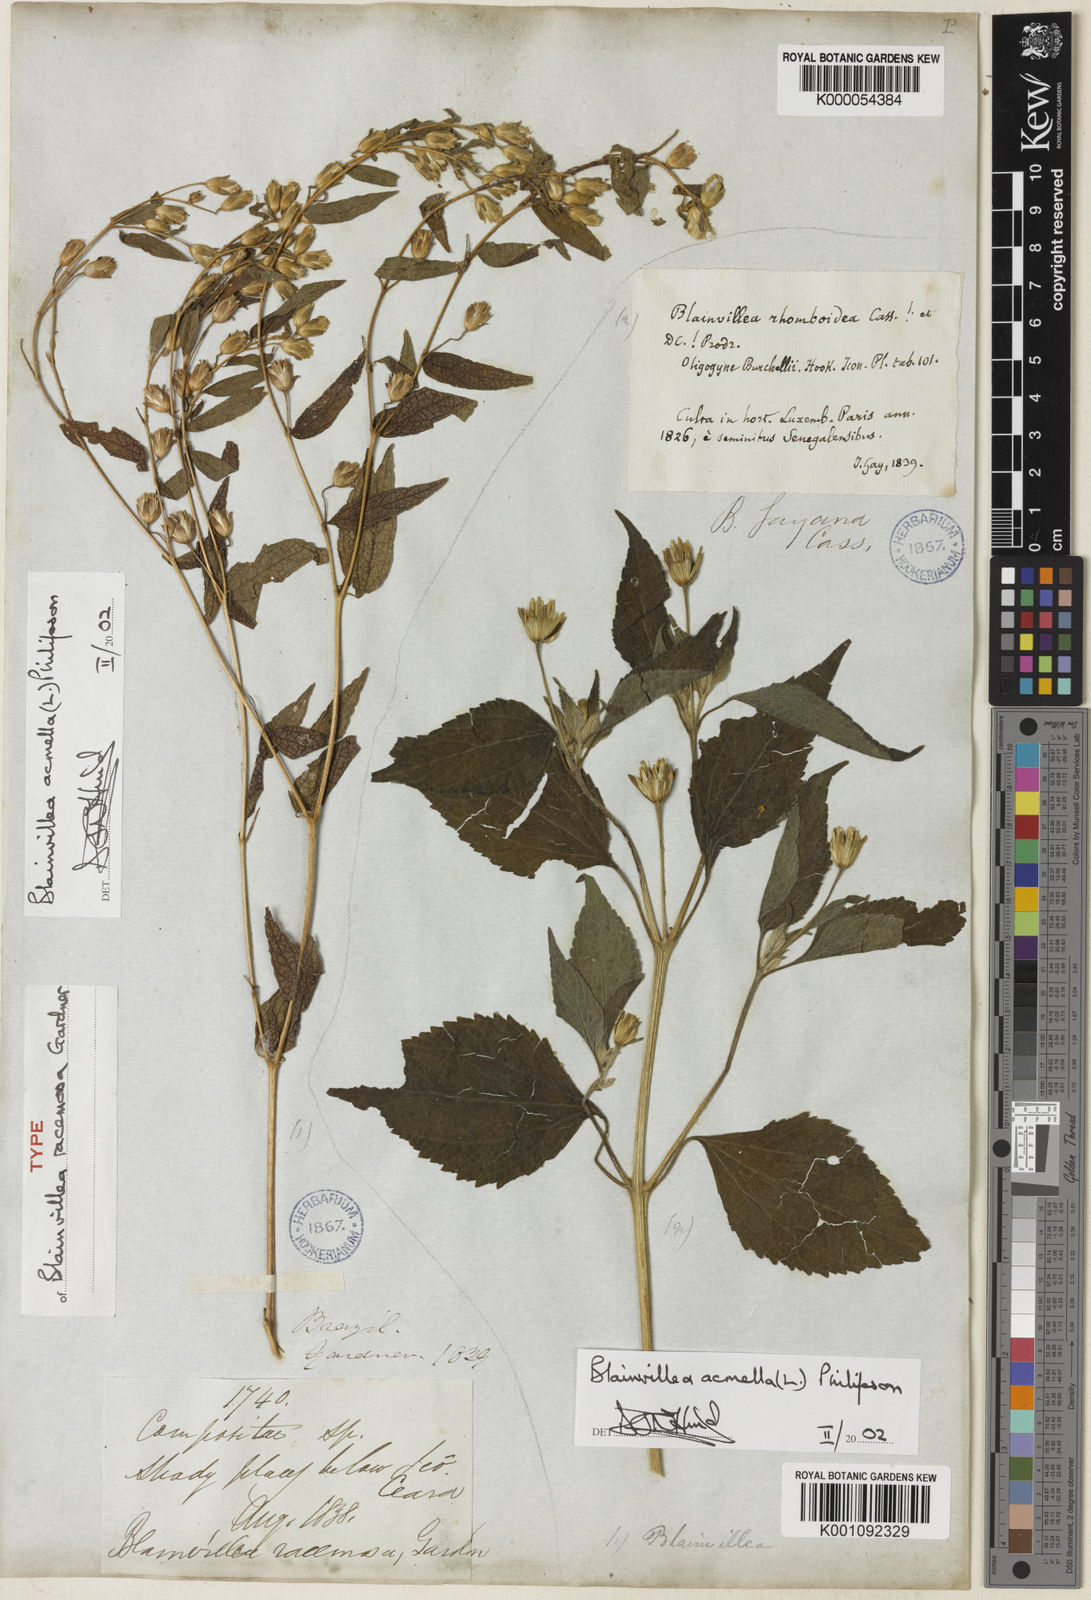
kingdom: Plantae
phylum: Tracheophyta
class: Magnoliopsida
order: Asterales
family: Asteraceae
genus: Blainvillea
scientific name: Blainvillea acmella
